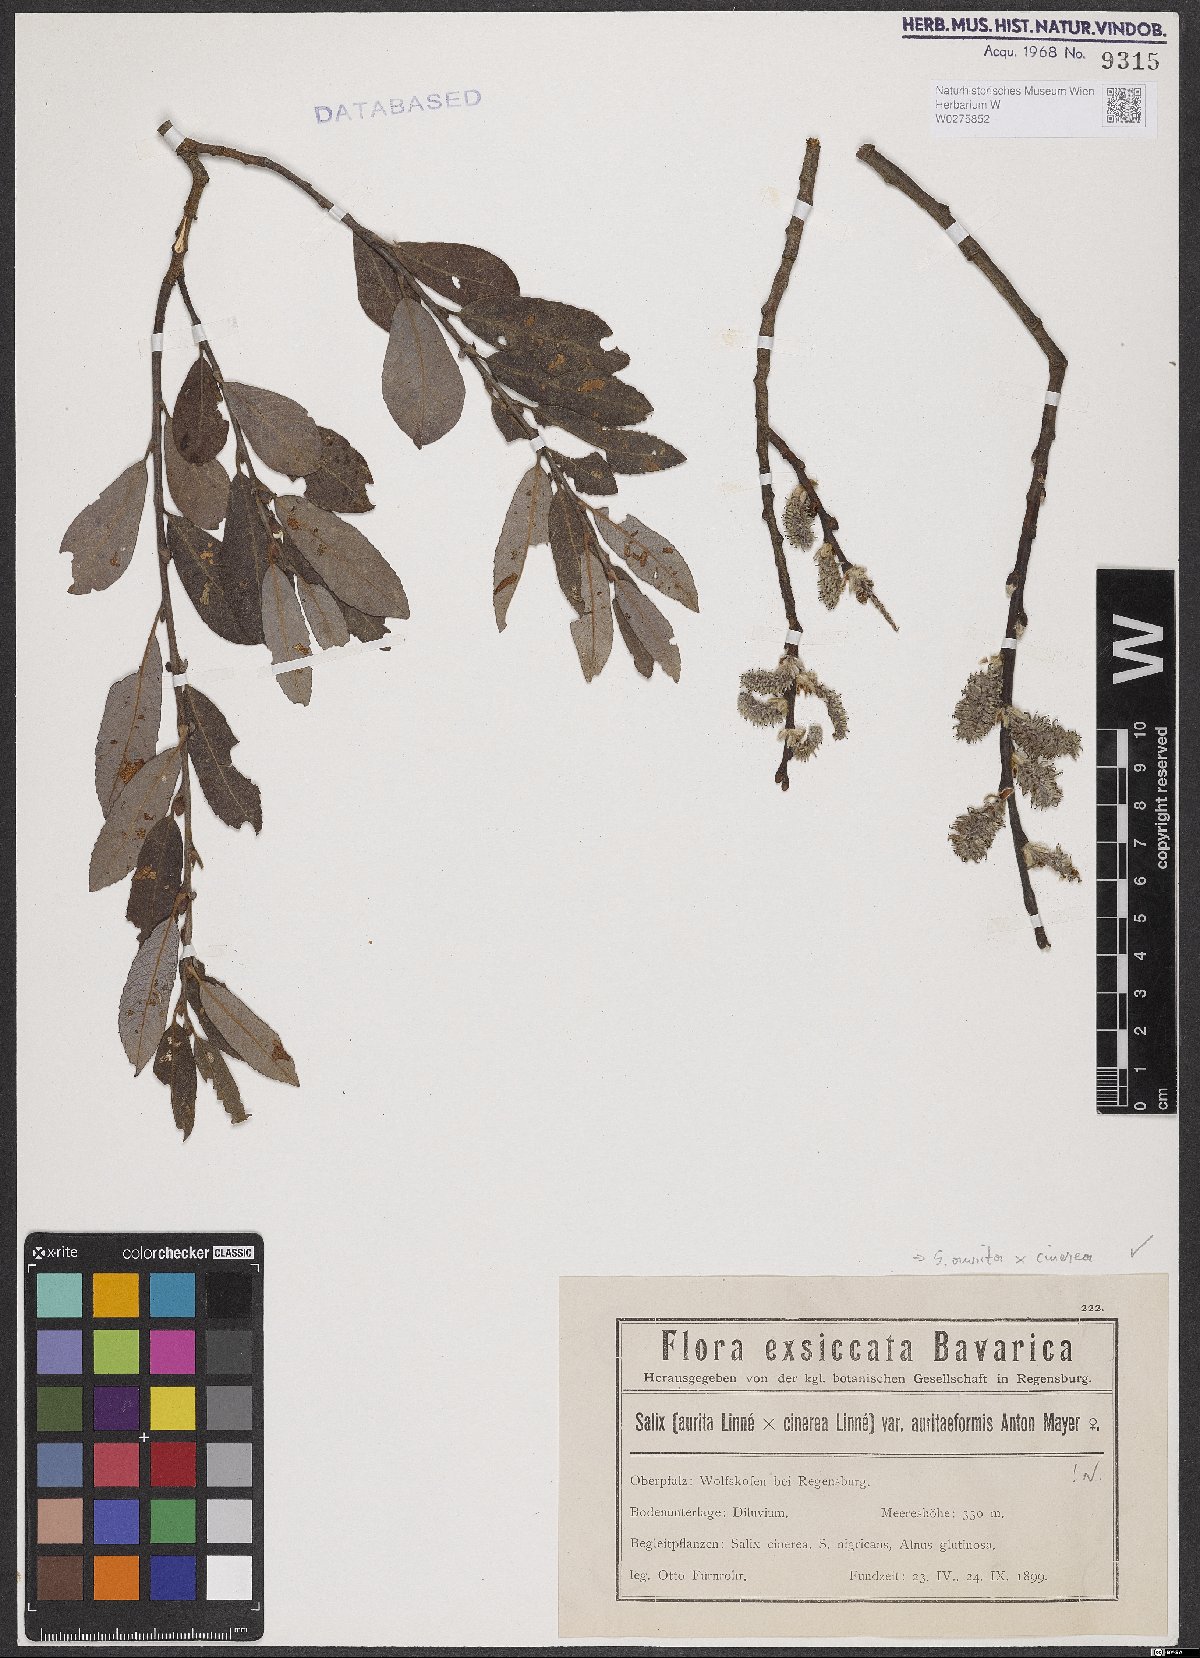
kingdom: Plantae
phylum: Tracheophyta
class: Magnoliopsida
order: Malpighiales
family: Salicaceae
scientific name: Salicaceae
